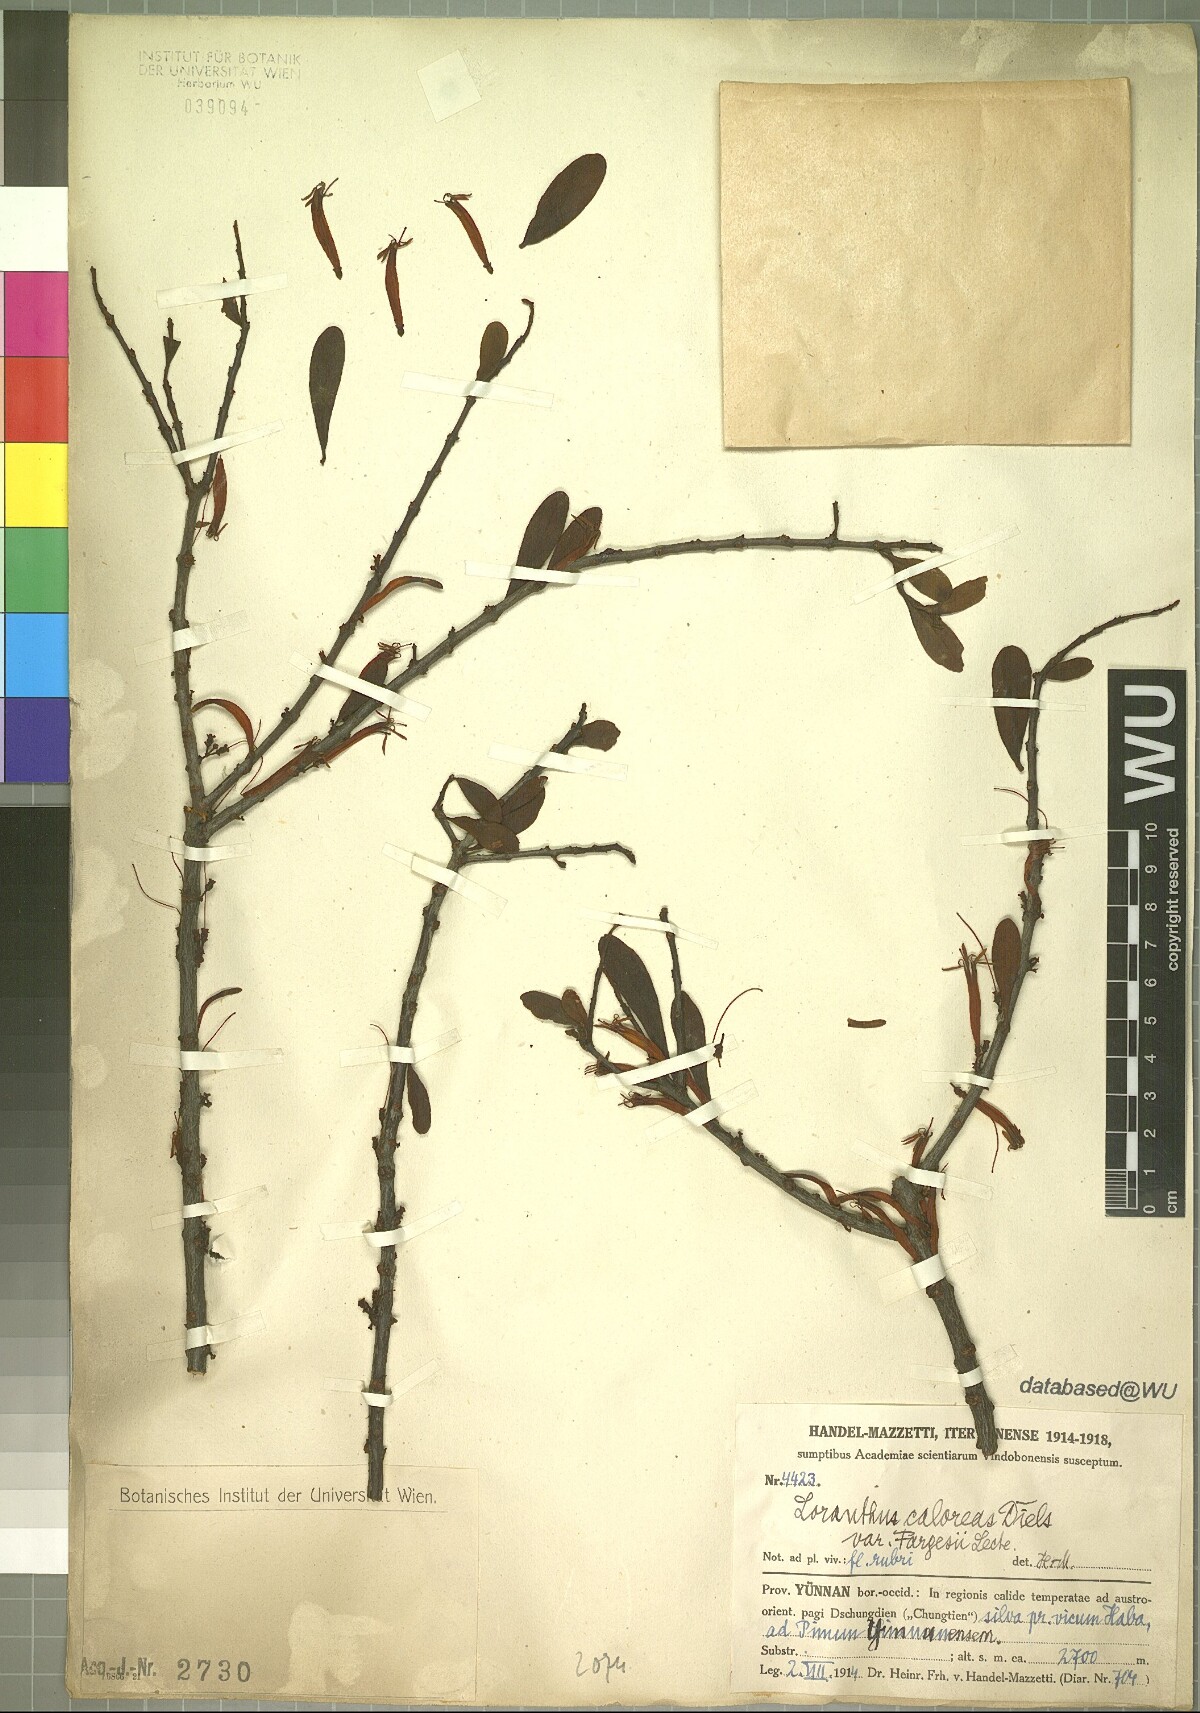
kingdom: Plantae
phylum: Tracheophyta
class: Magnoliopsida
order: Santalales
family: Loranthaceae
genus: Taxillus
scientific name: Taxillus caloreas
